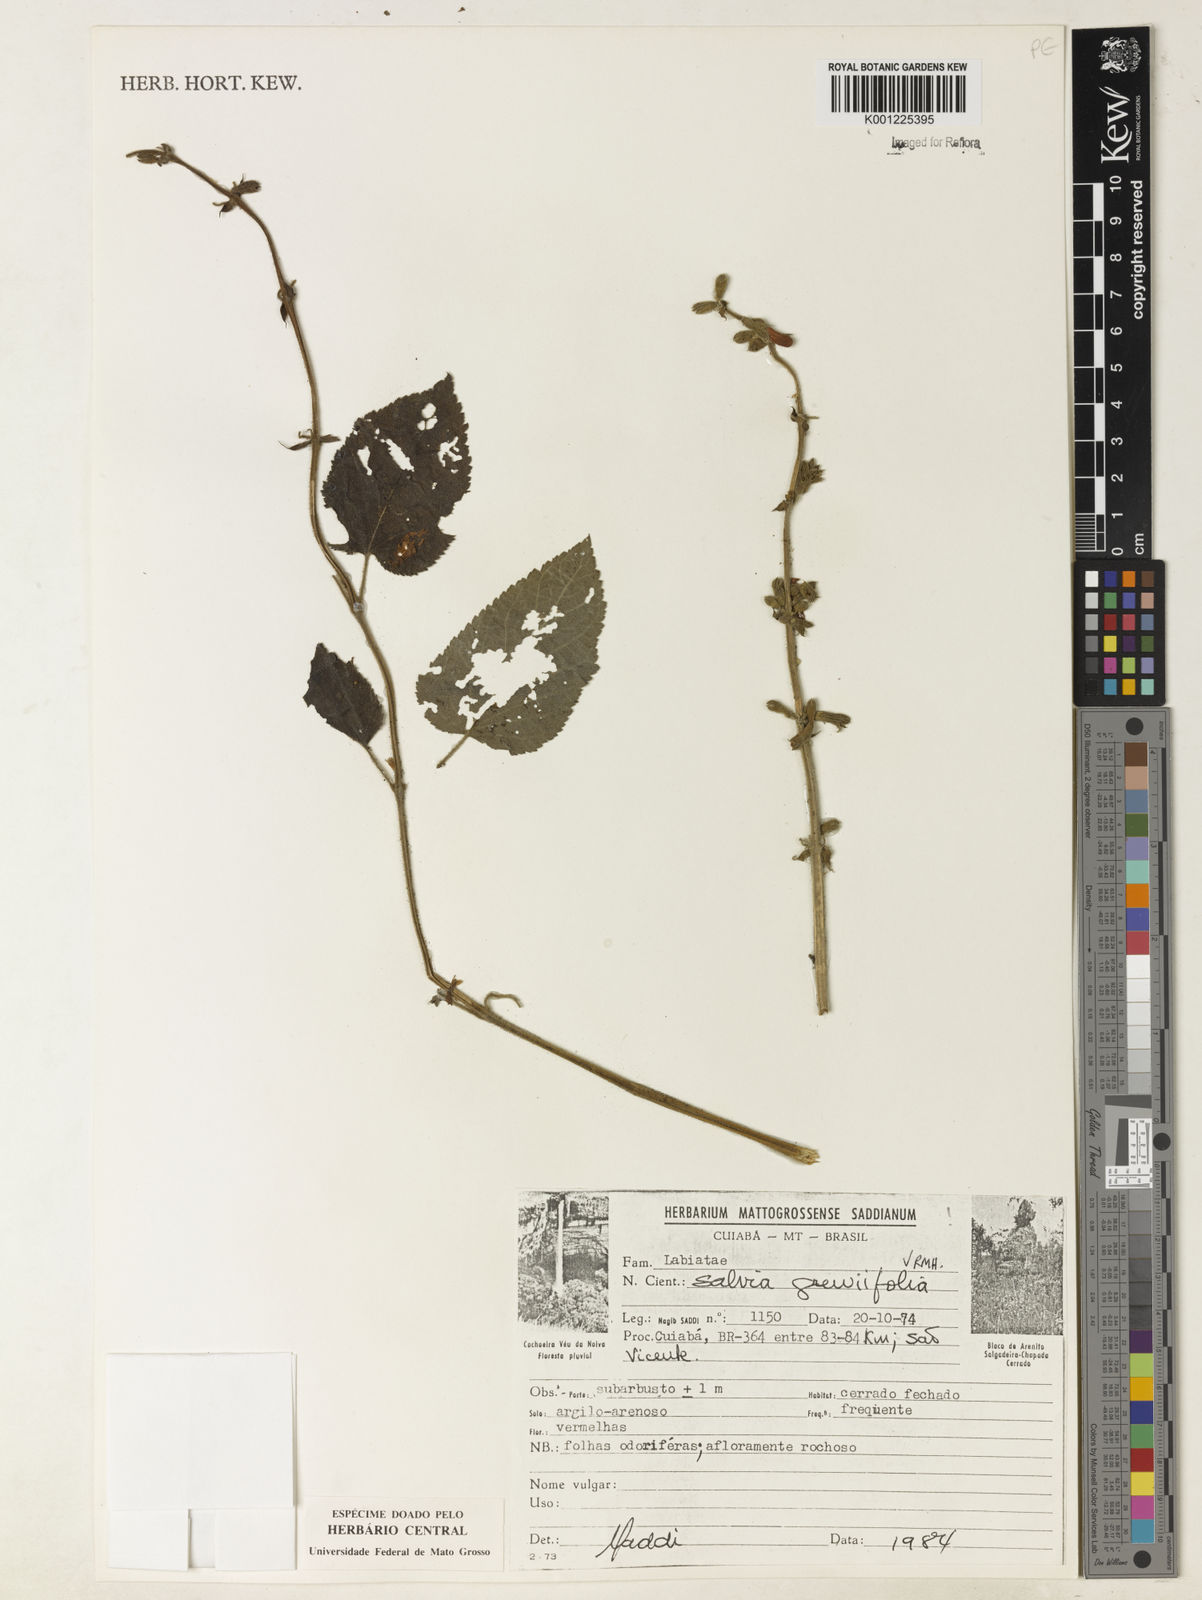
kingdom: Plantae
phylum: Tracheophyta
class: Magnoliopsida
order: Lamiales
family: Lamiaceae
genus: Salvia
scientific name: Salvia grewiifolia
